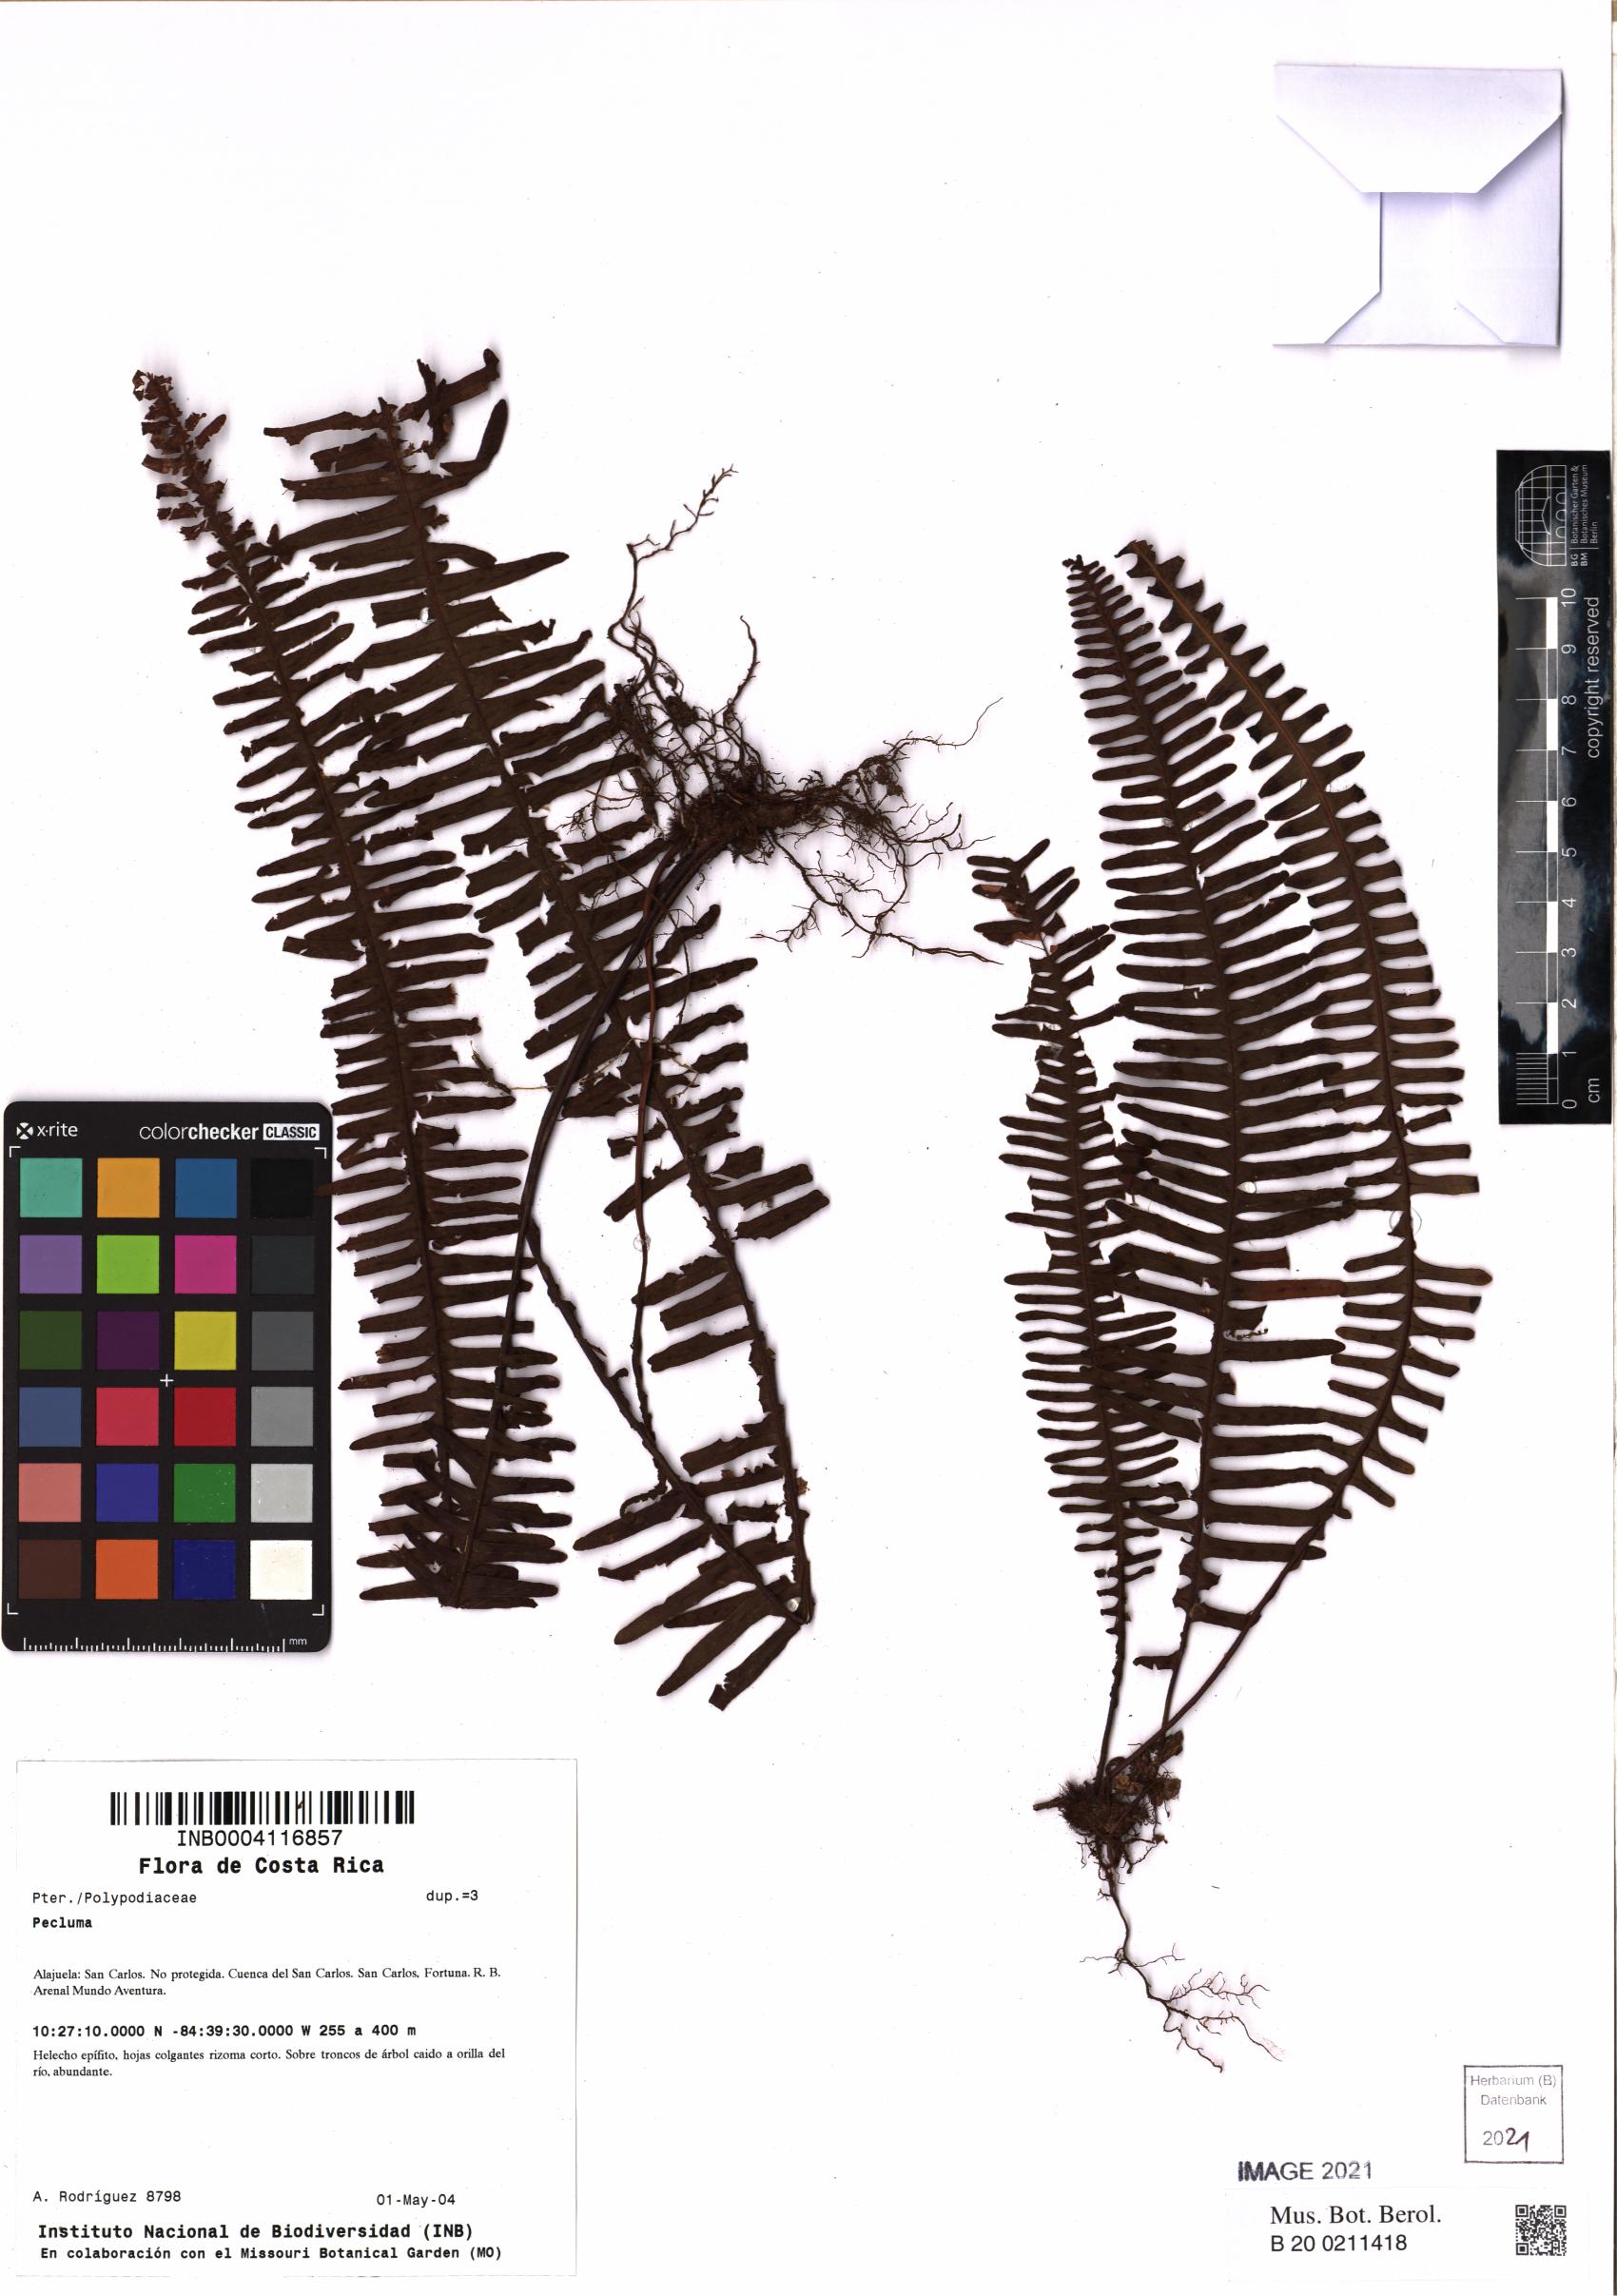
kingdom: Plantae
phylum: Tracheophyta
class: Polypodiopsida
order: Polypodiales
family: Polypodiaceae
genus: Pecluma
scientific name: Pecluma
